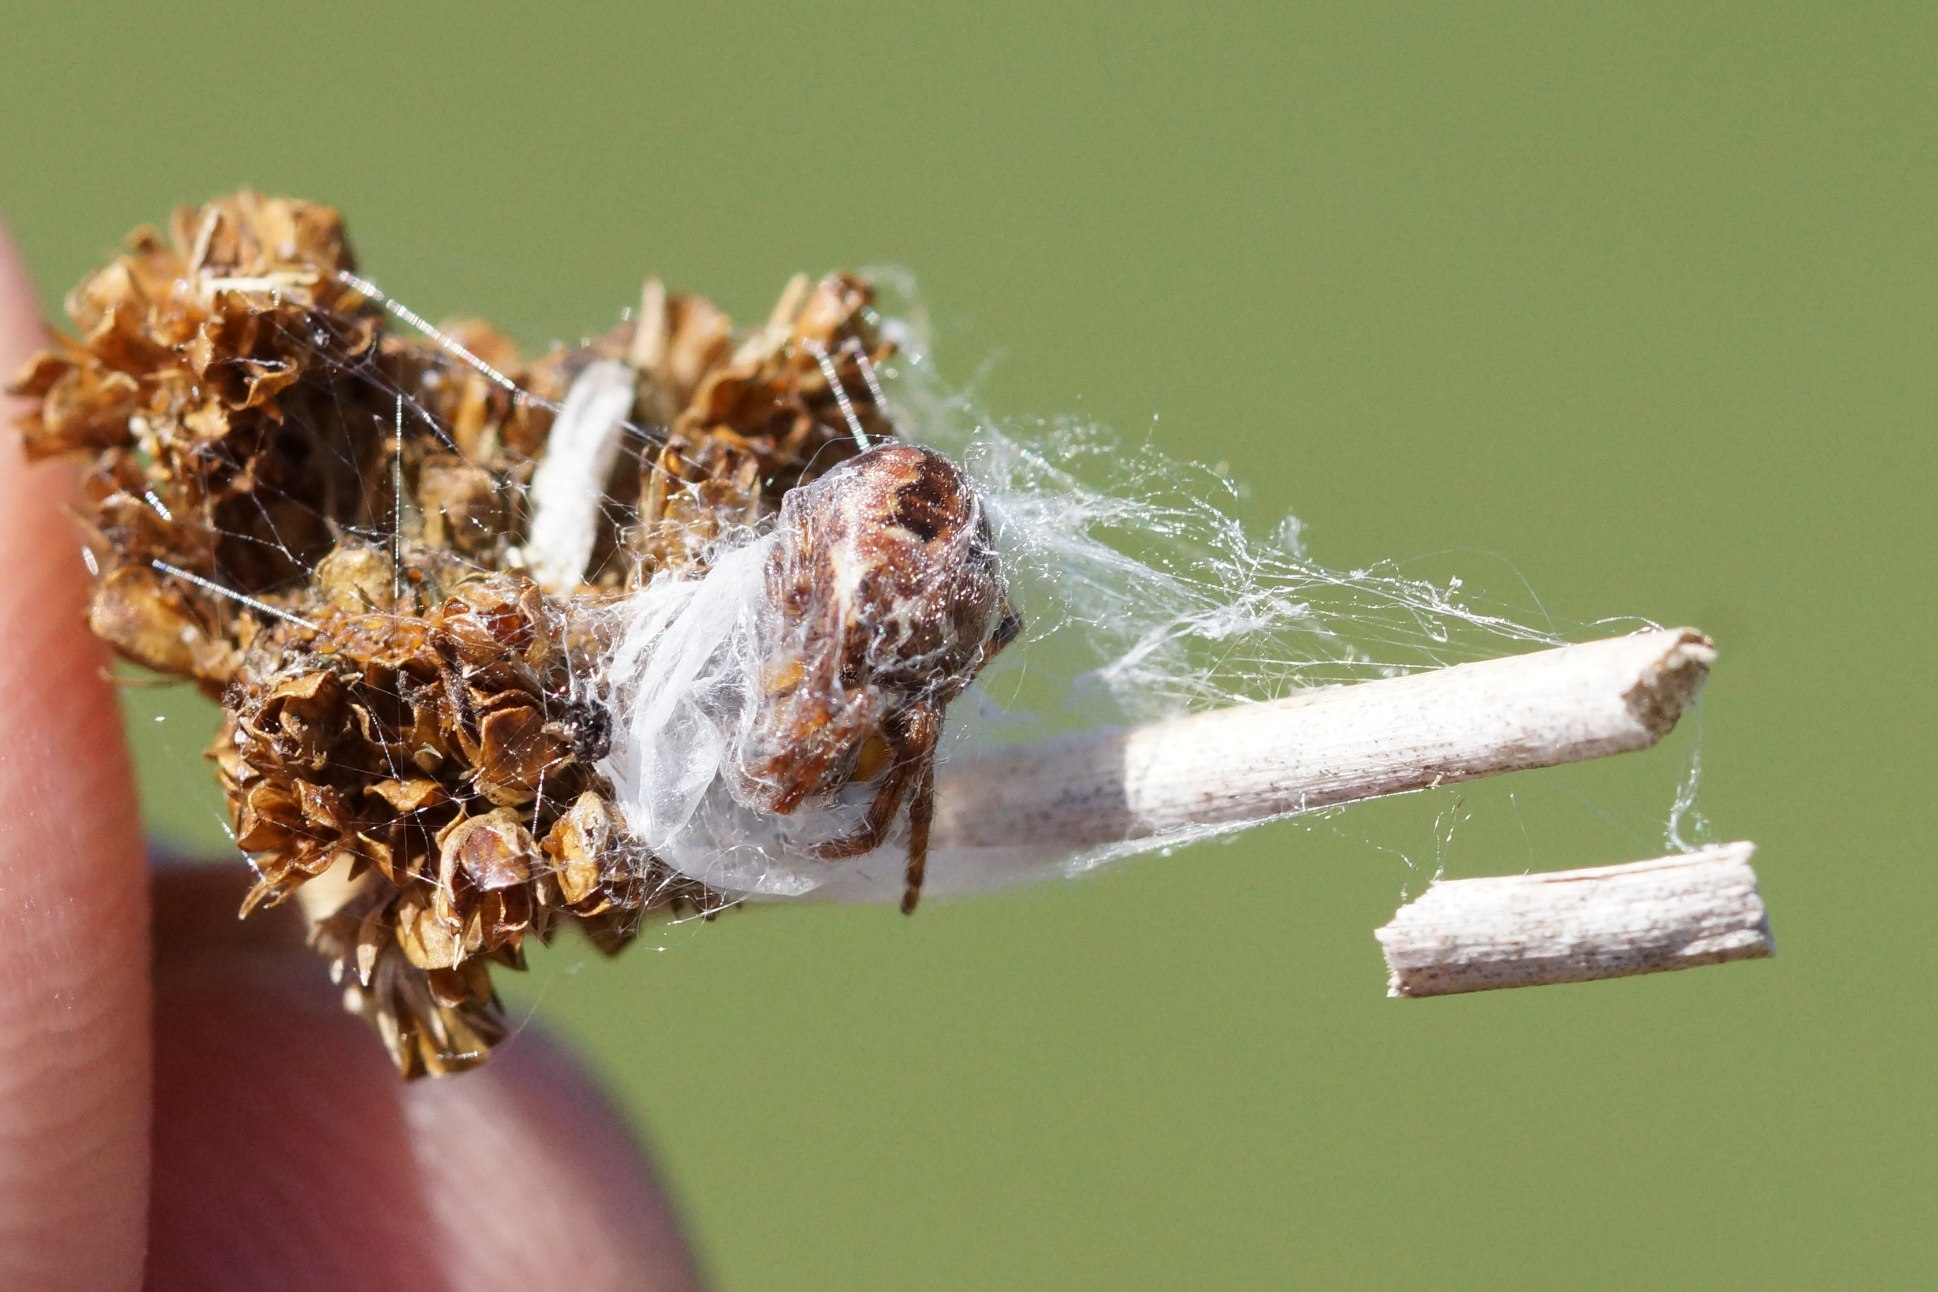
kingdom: Animalia
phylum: Arthropoda
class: Arachnida
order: Araneae
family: Araneidae
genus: Larinioides
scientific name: Larinioides cornutus
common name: Sivhjulspinder
